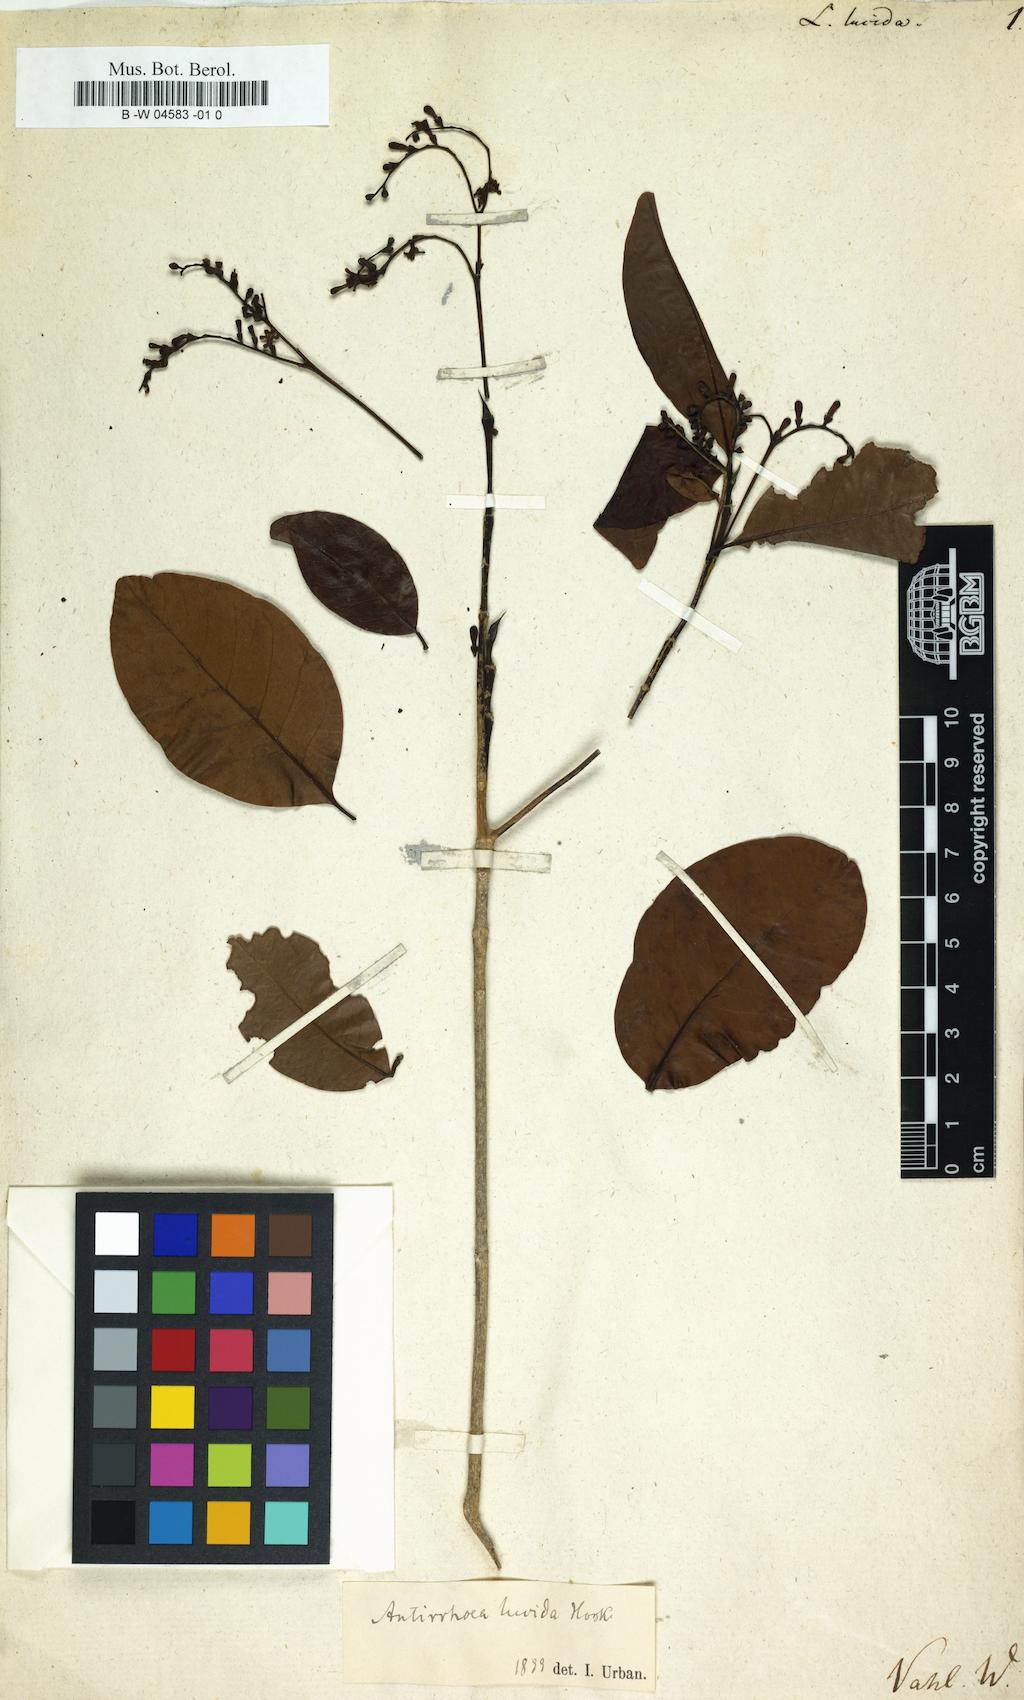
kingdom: Plantae
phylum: Tracheophyta
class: Magnoliopsida
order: Gentianales
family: Rubiaceae
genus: Stenostomum
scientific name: Stenostomum lucidum
